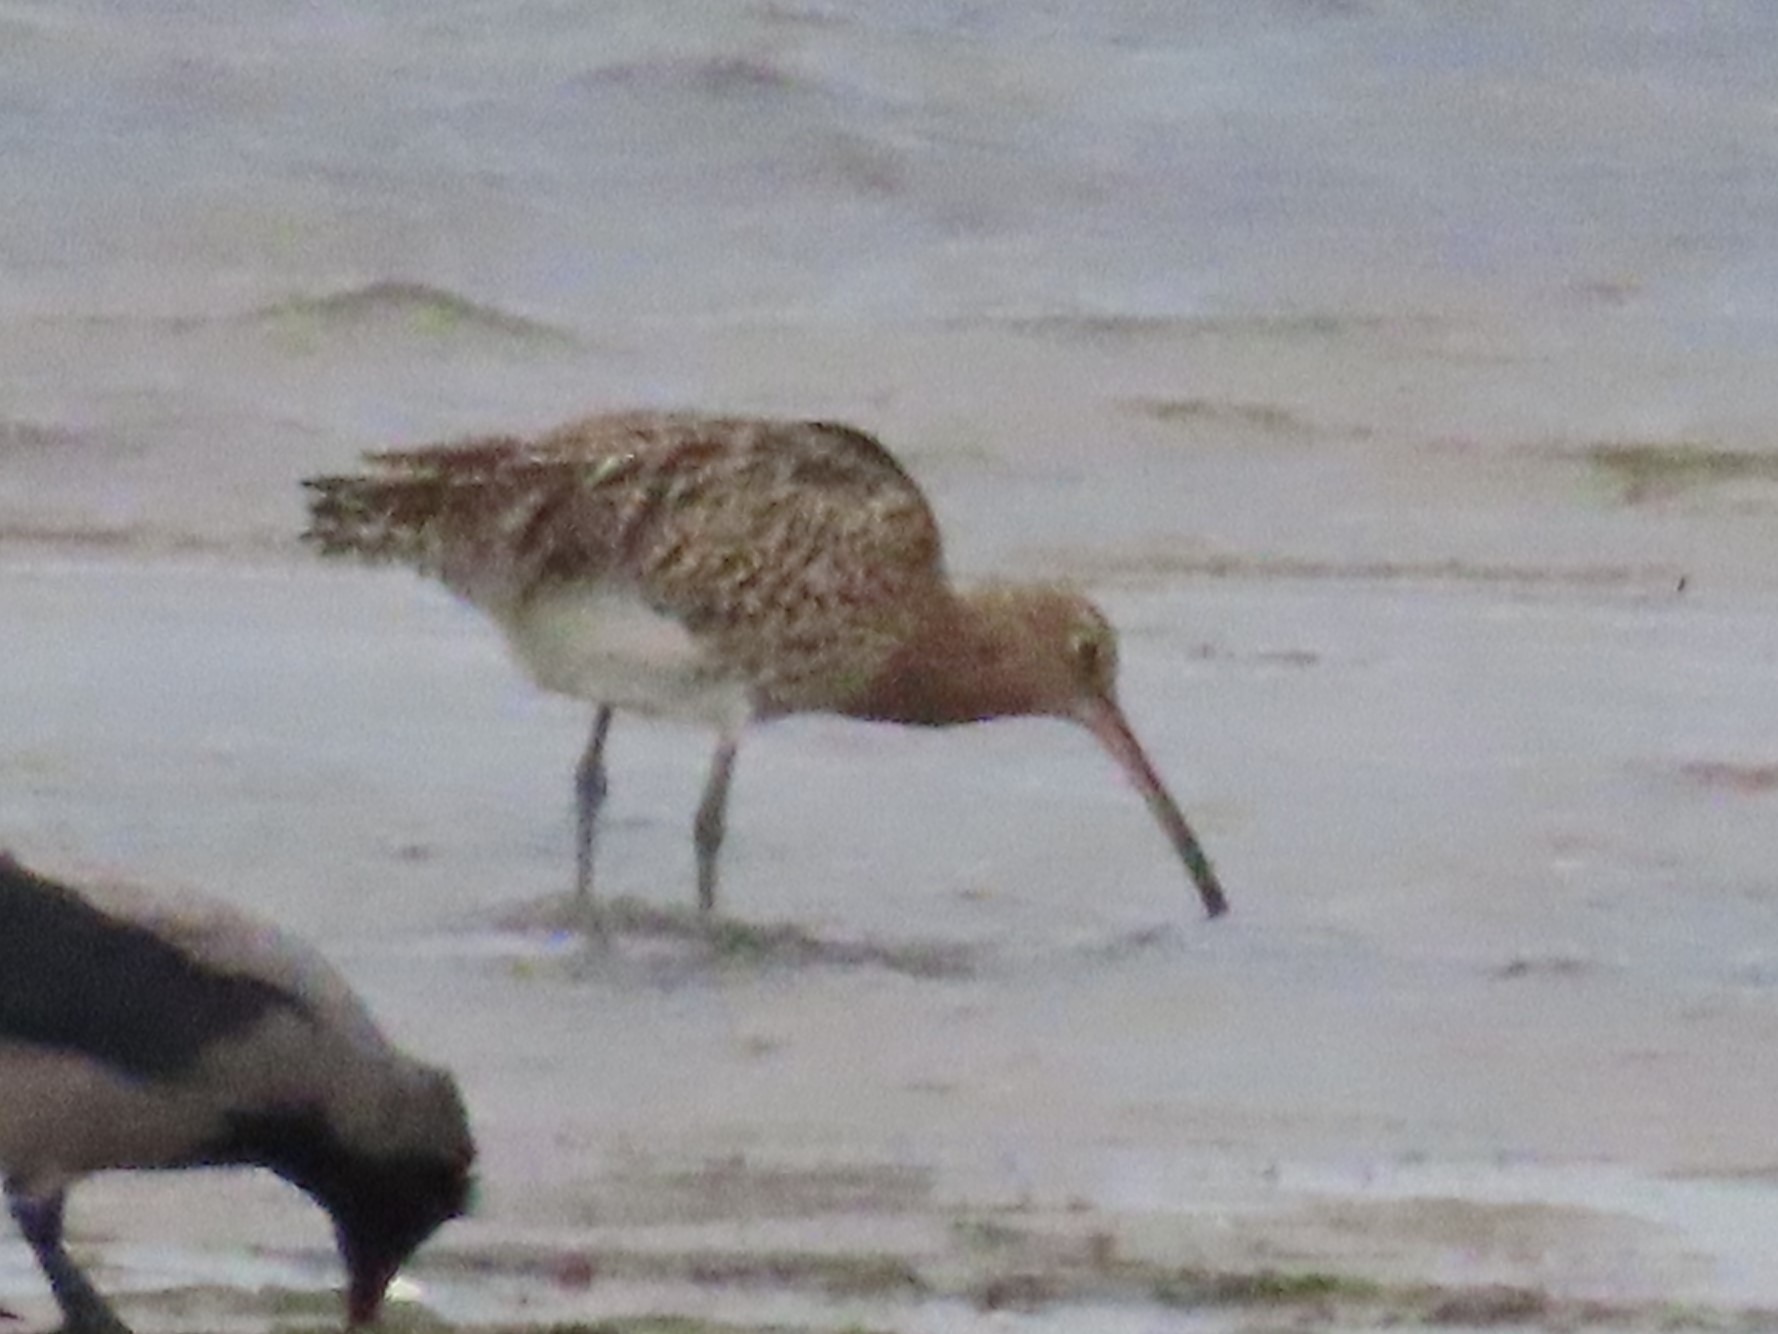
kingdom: Animalia
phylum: Chordata
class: Aves
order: Charadriiformes
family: Scolopacidae
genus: Numenius
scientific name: Numenius arquata
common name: Storspove
